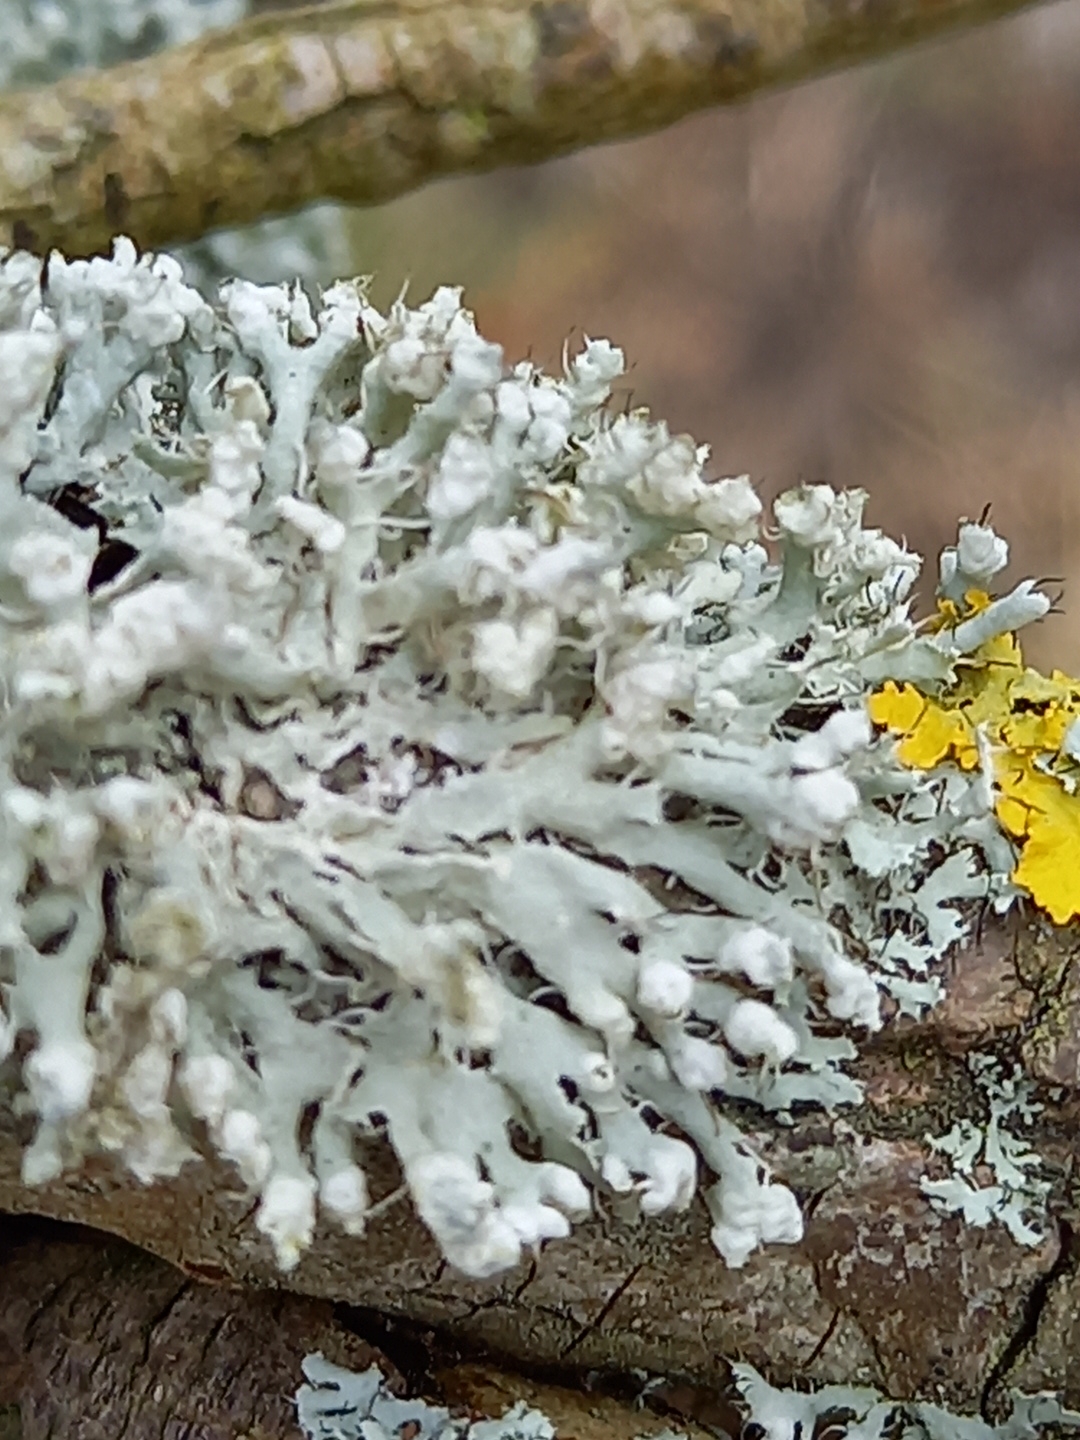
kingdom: Fungi
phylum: Ascomycota
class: Lecanoromycetes
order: Caliciales
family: Physciaceae
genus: Physcia
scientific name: Physcia adscendens
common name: hætte-rosetlav
